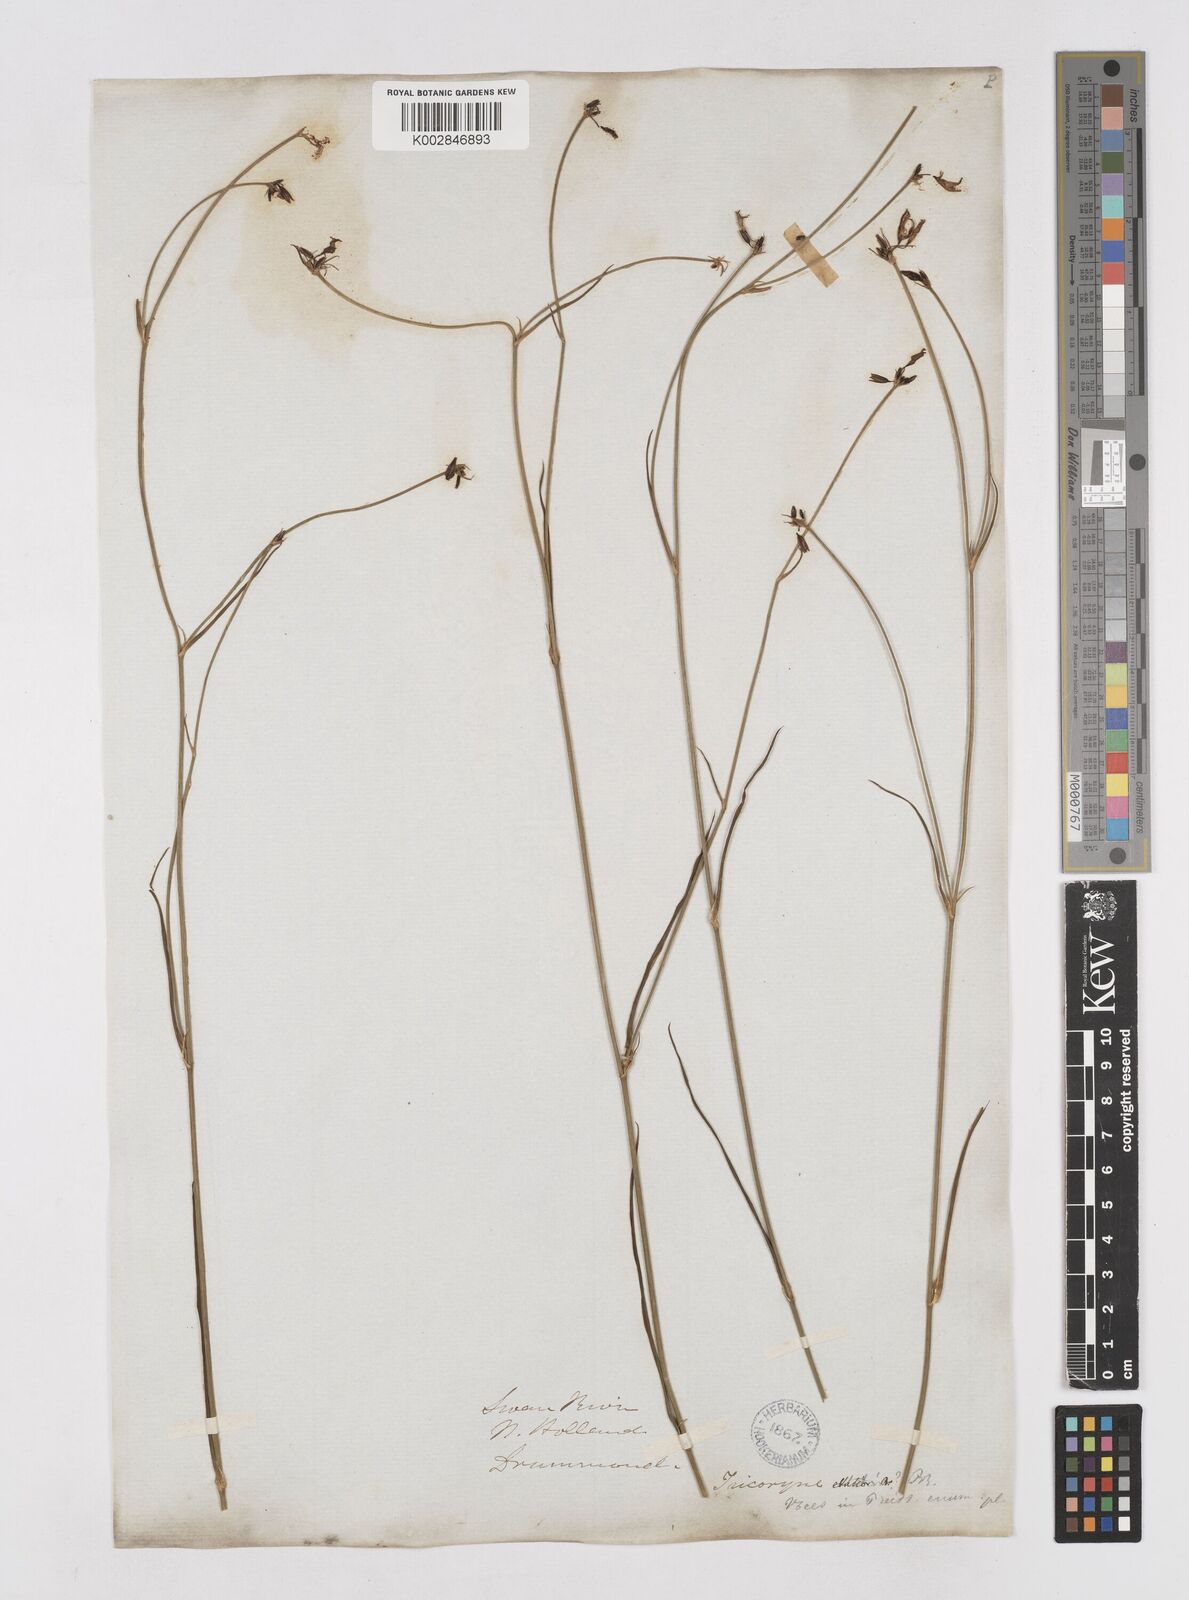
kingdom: Plantae
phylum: Tracheophyta
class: Liliopsida
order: Asparagales
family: Asphodelaceae
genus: Tricoryne
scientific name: Tricoryne elatior
